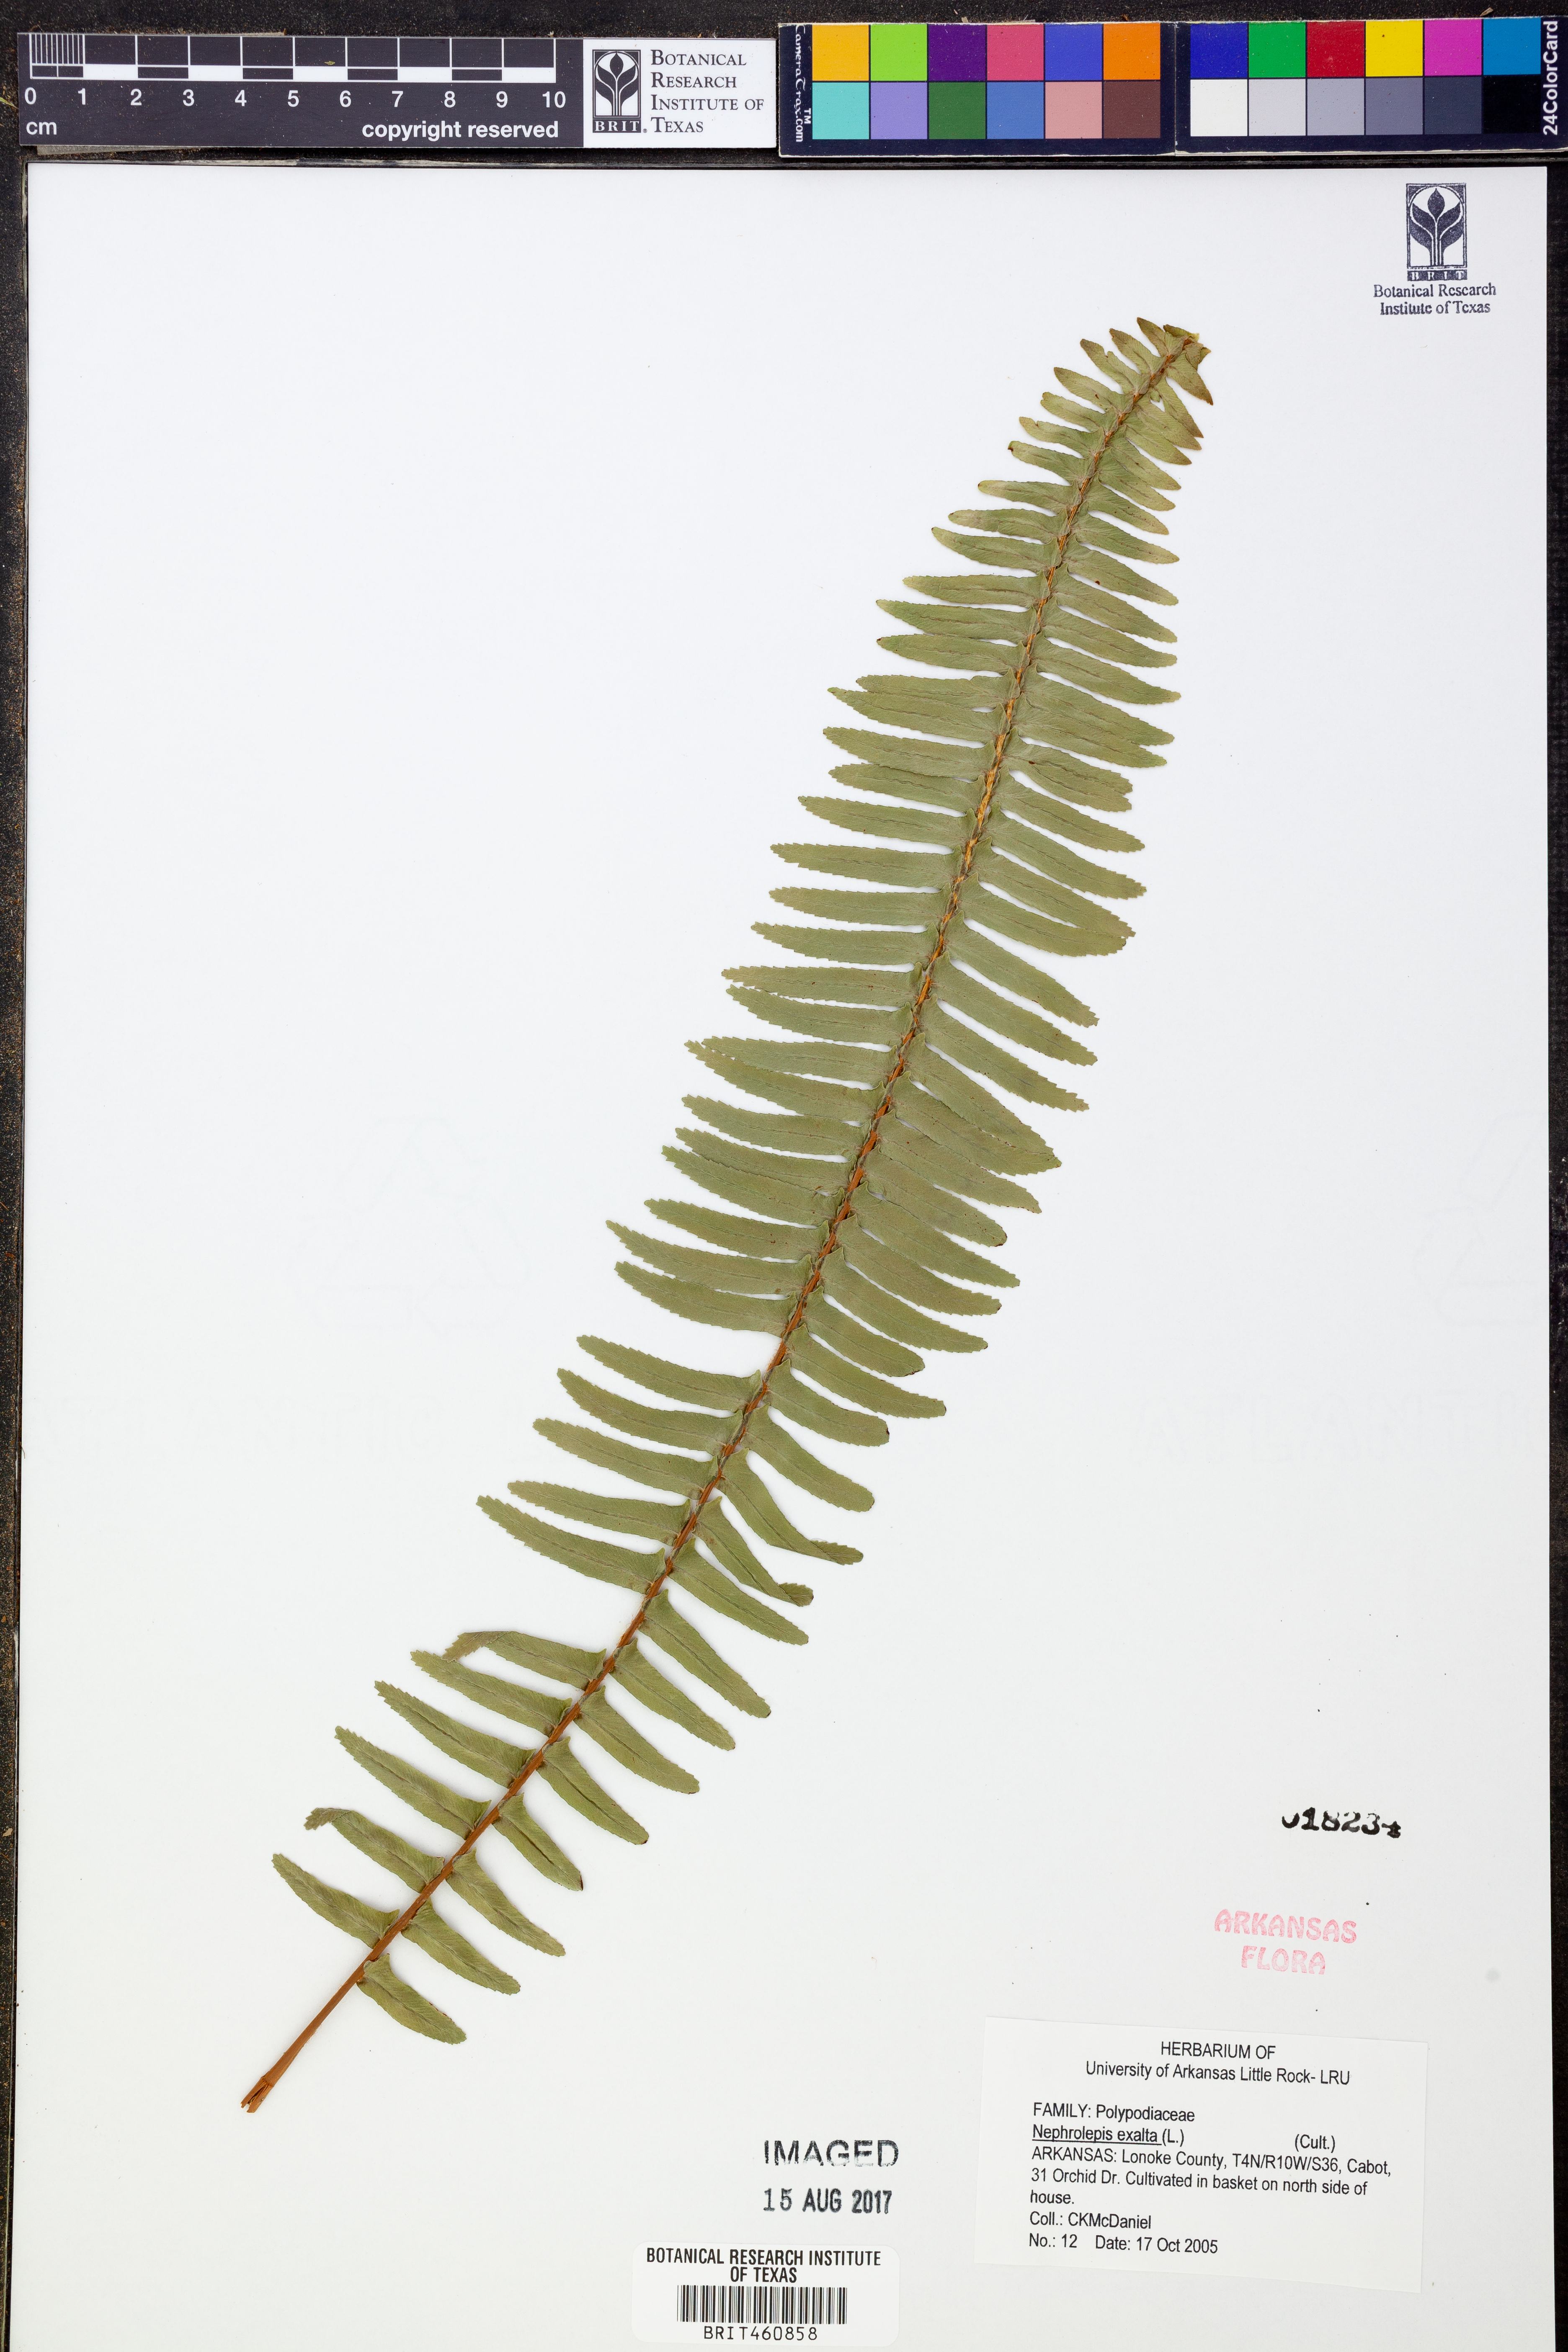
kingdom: Plantae
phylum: Tracheophyta
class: Polypodiopsida
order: Polypodiales
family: Nephrolepidaceae
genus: Nephrolepis
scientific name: Nephrolepis exaltata
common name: Sword fern
